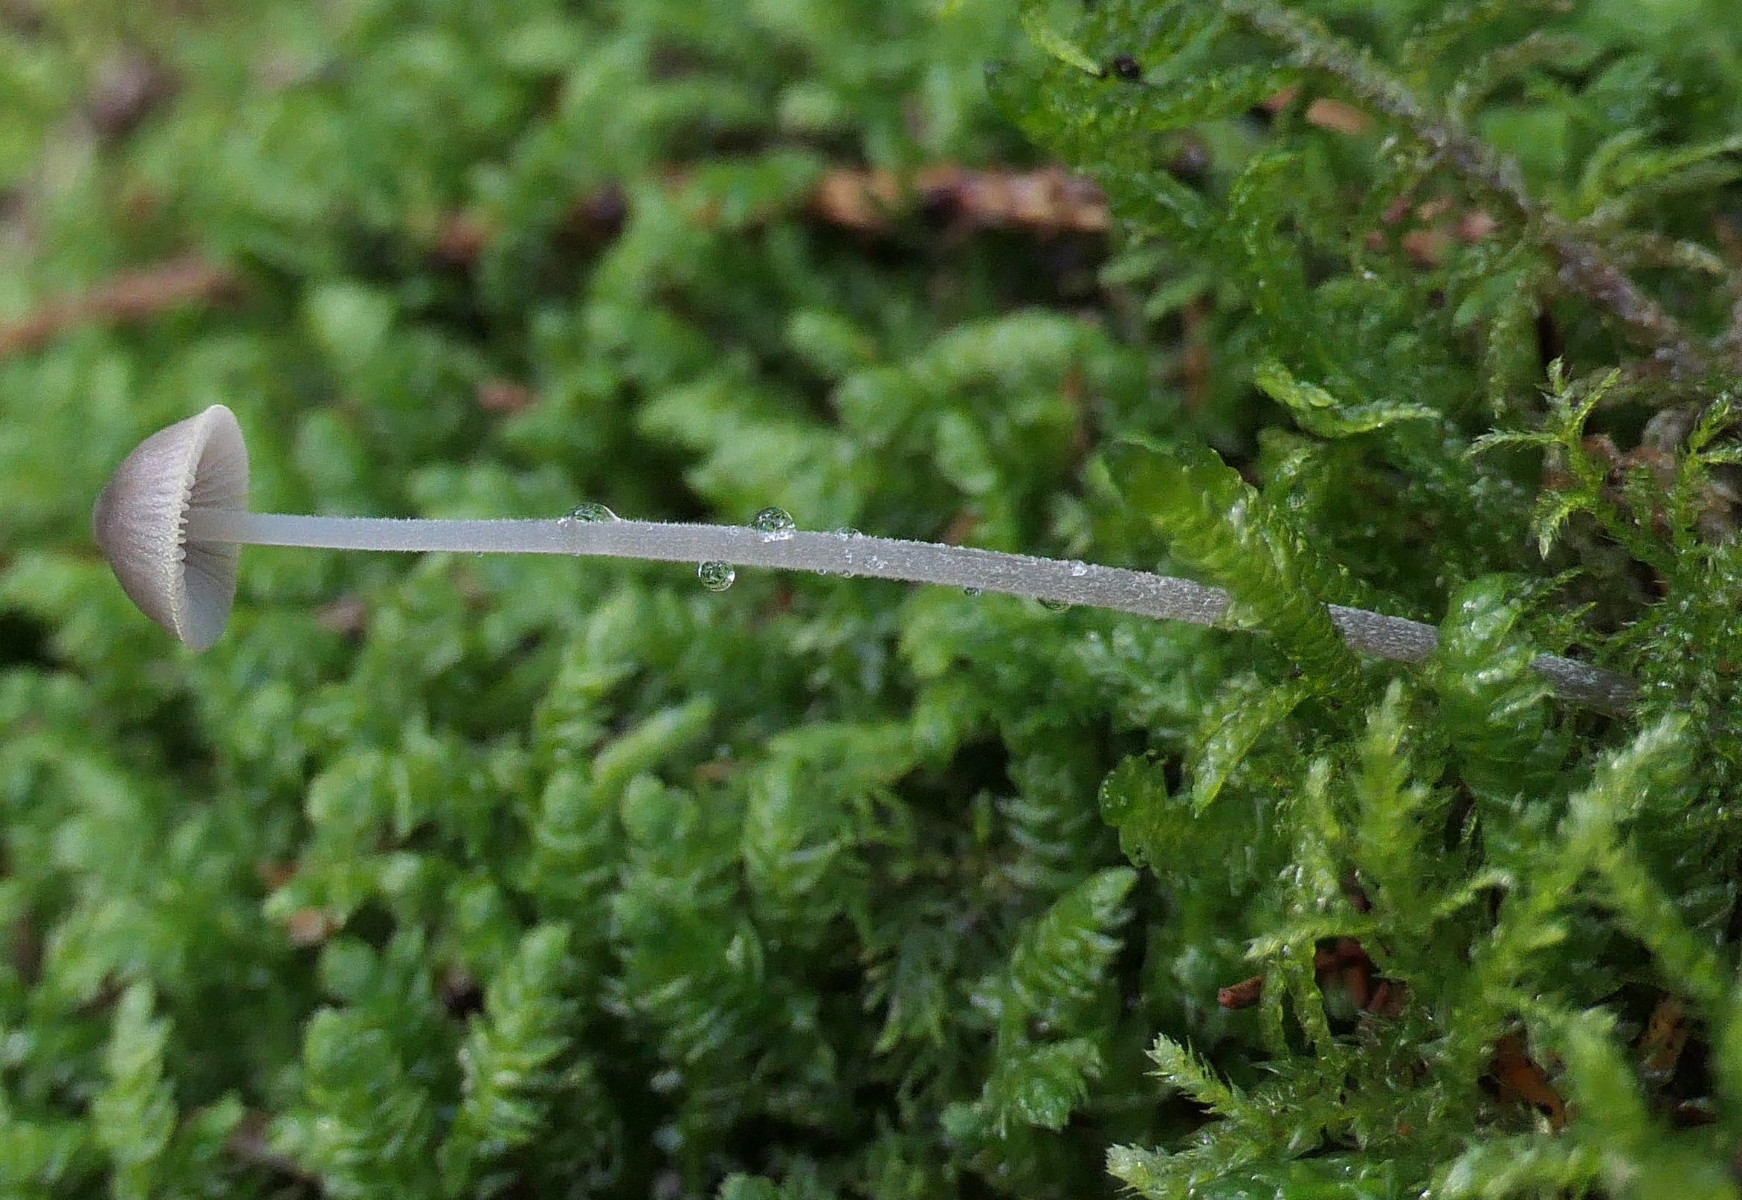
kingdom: Fungi
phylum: Basidiomycota
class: Agaricomycetes
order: Agaricales
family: Mycenaceae
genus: Mycena
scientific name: Mycena amicta
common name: iris-huesvamp
